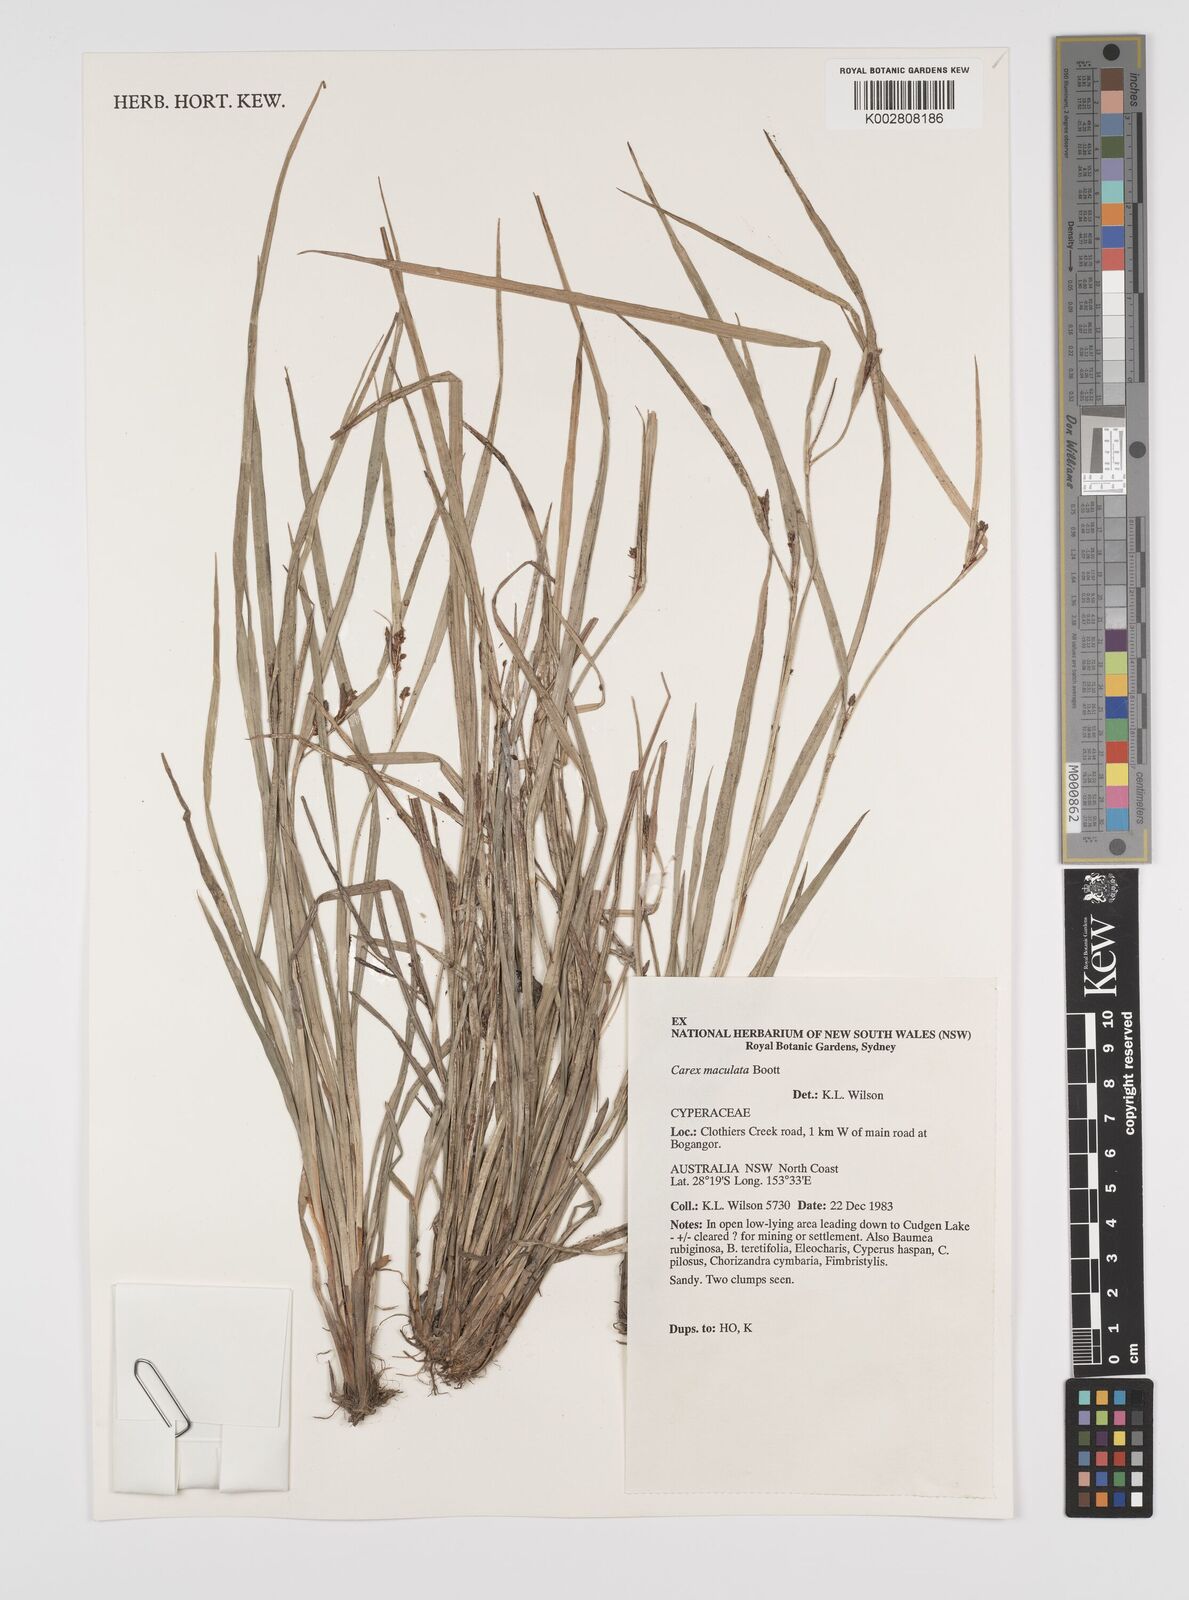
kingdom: Plantae
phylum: Tracheophyta
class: Liliopsida
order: Poales
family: Cyperaceae
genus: Carex
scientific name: Carex maculata
